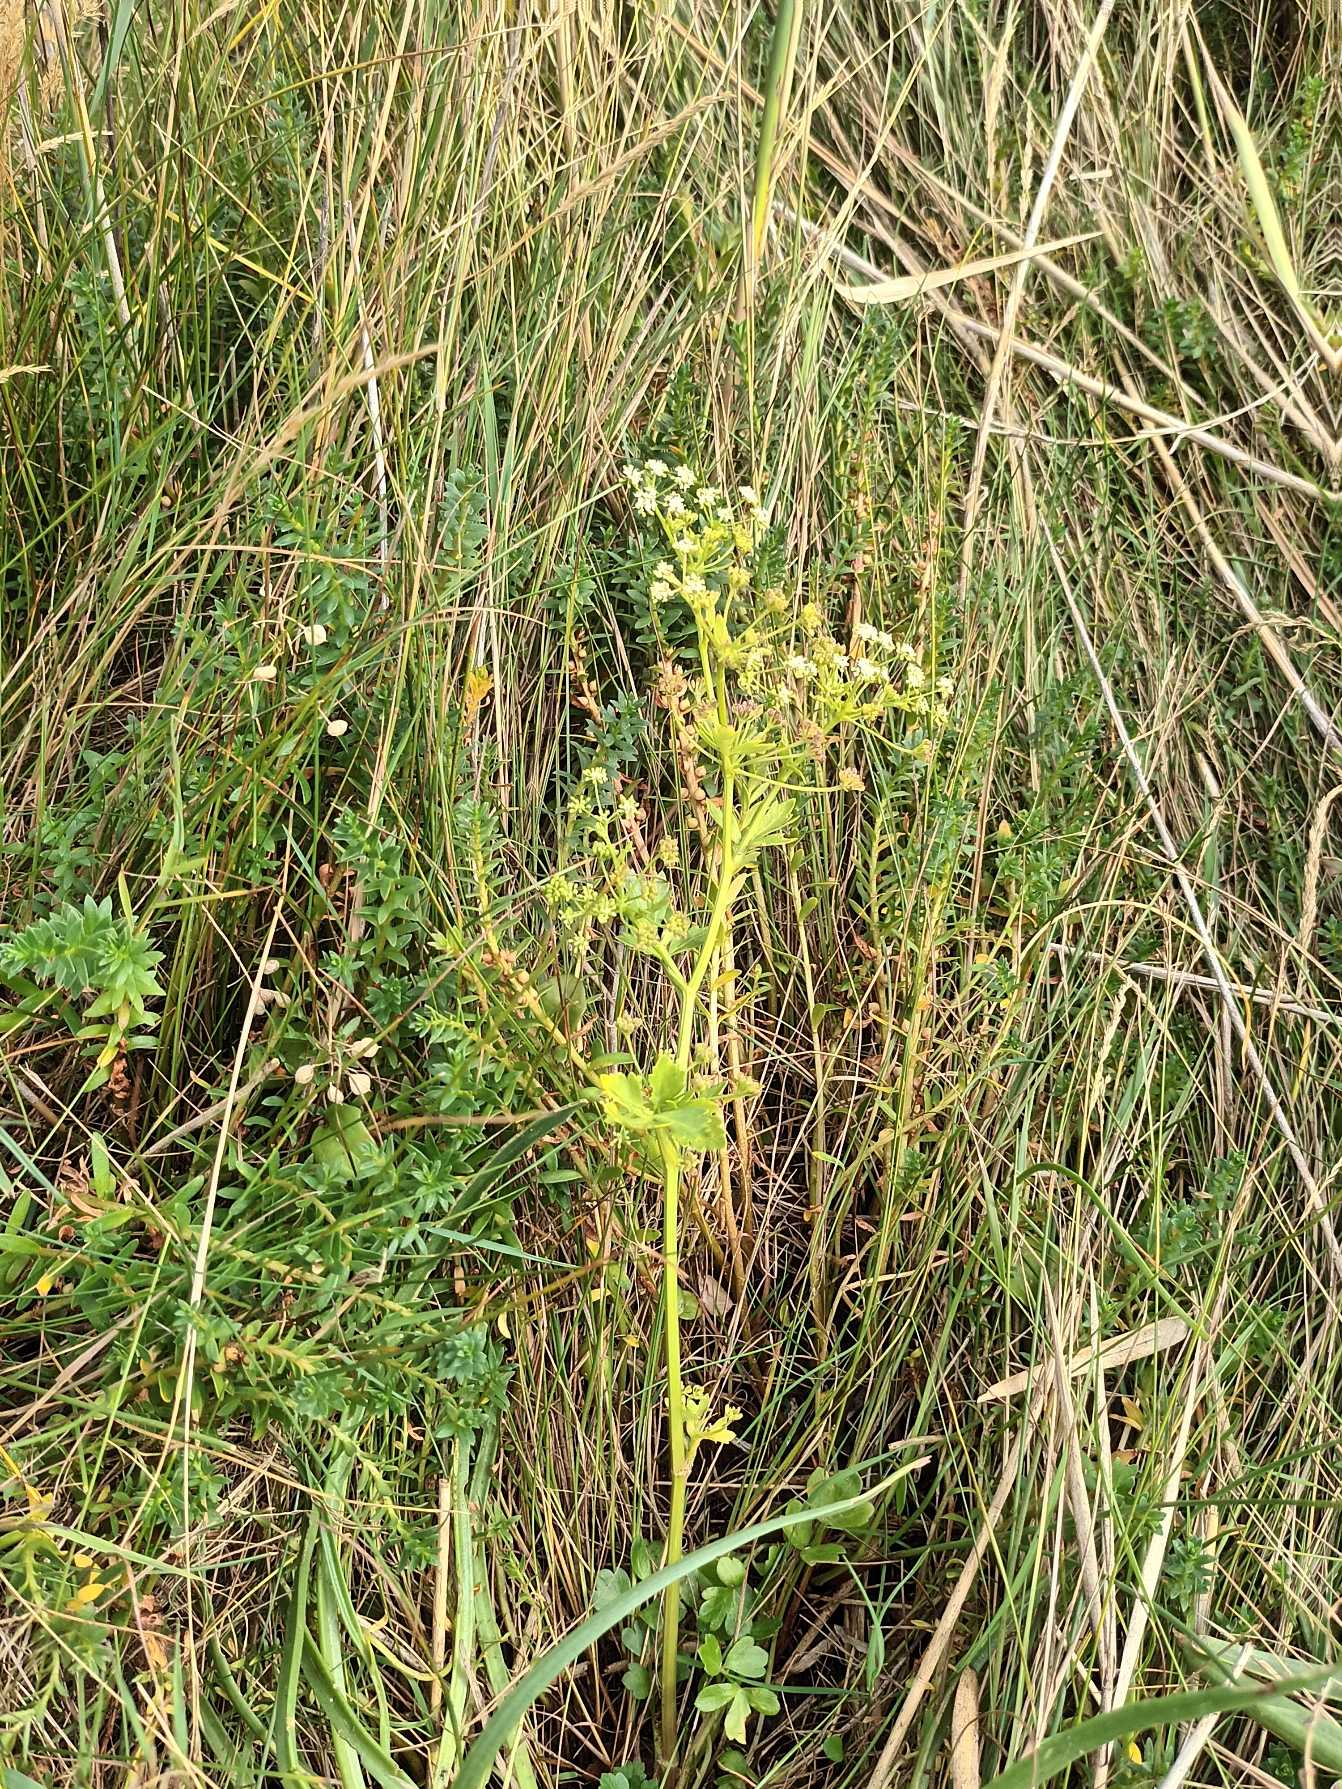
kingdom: Plantae
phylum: Tracheophyta
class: Magnoliopsida
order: Apiales
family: Apiaceae
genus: Apium
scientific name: Apium graveolens
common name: Vild selleri
